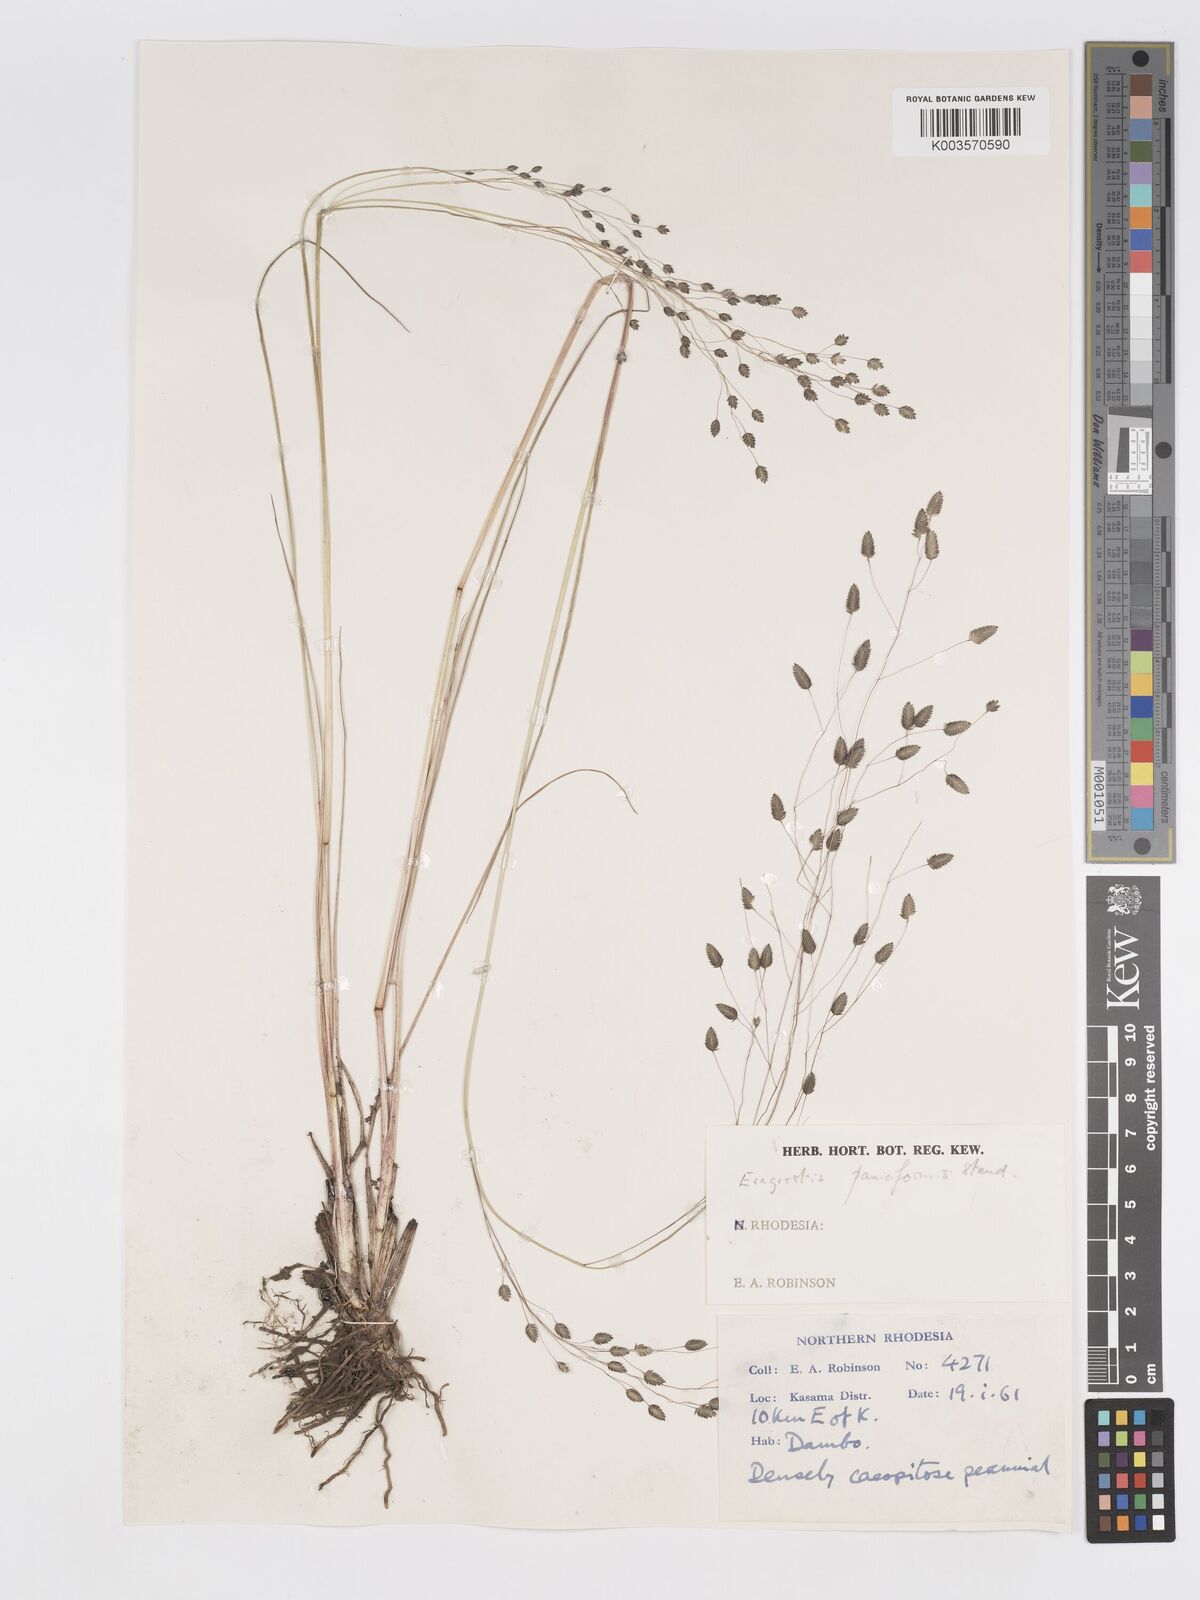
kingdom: Plantae
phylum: Tracheophyta
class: Liliopsida
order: Poales
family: Poaceae
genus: Eragrostis
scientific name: Eragrostis paniciformis
